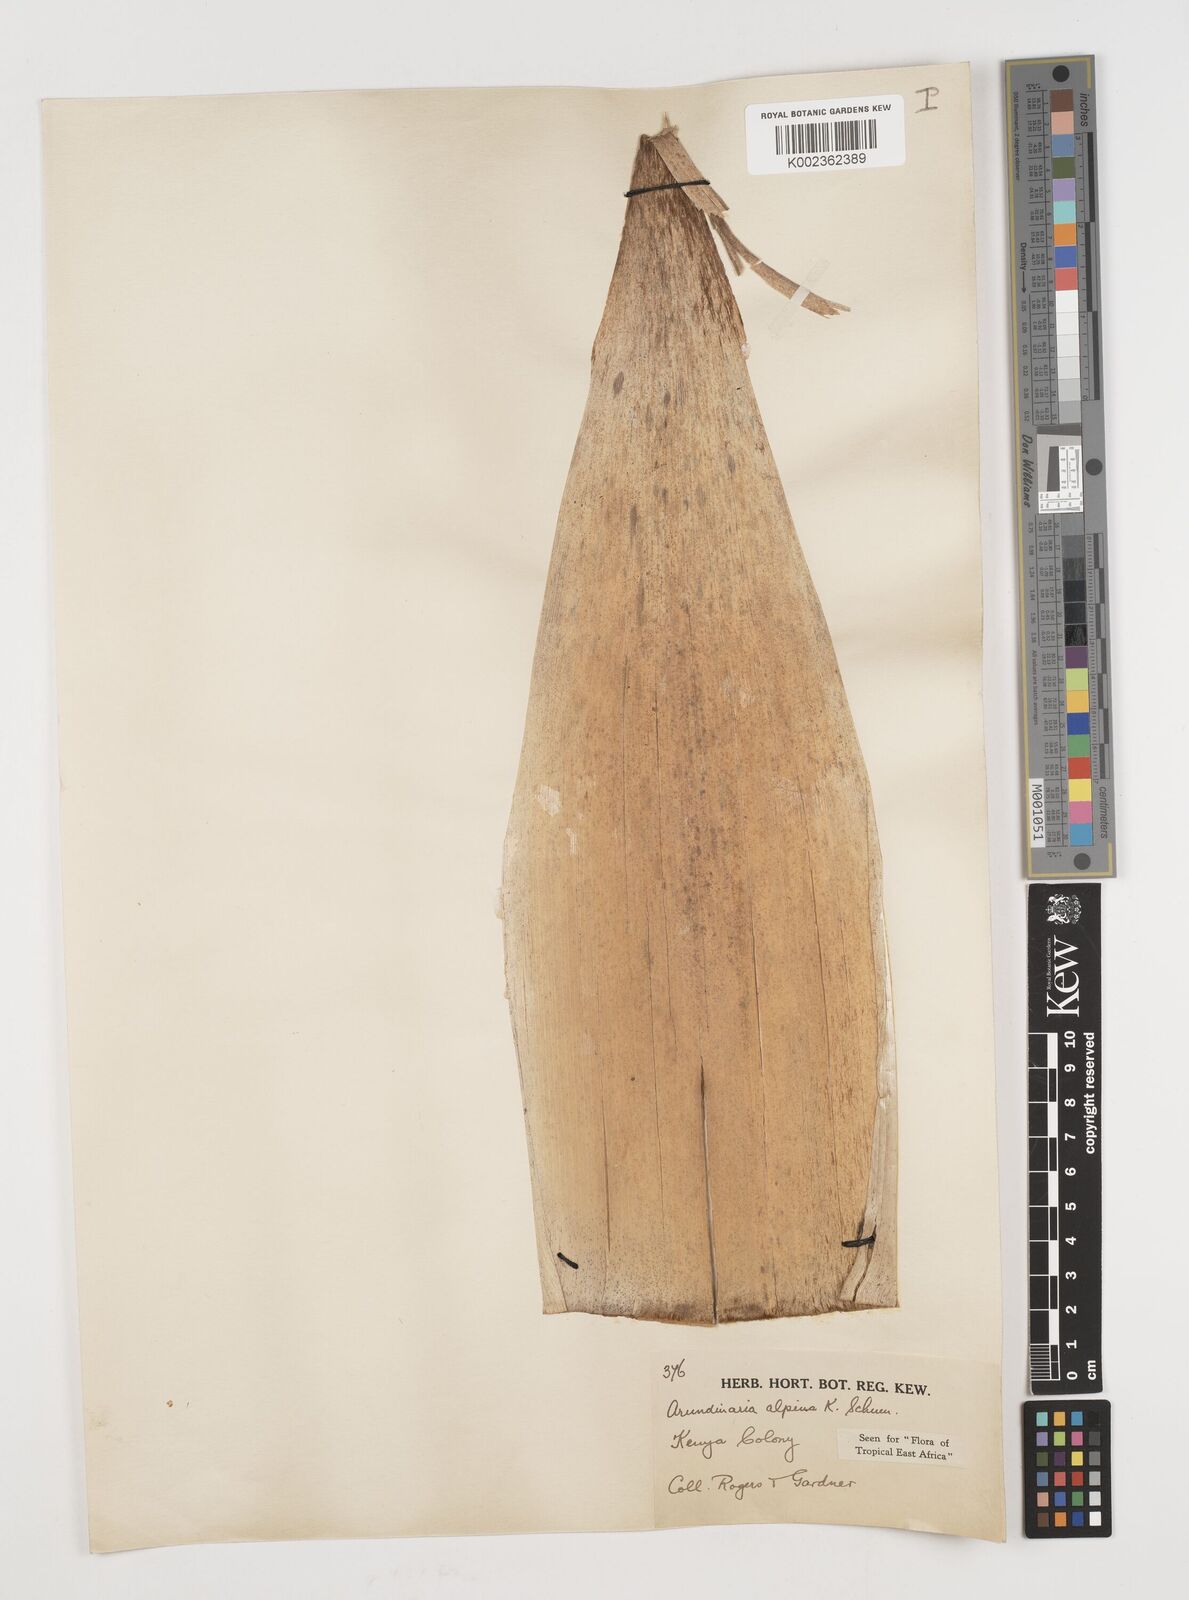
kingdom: Plantae
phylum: Tracheophyta
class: Liliopsida
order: Poales
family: Poaceae
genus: Oldeania
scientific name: Oldeania alpina
